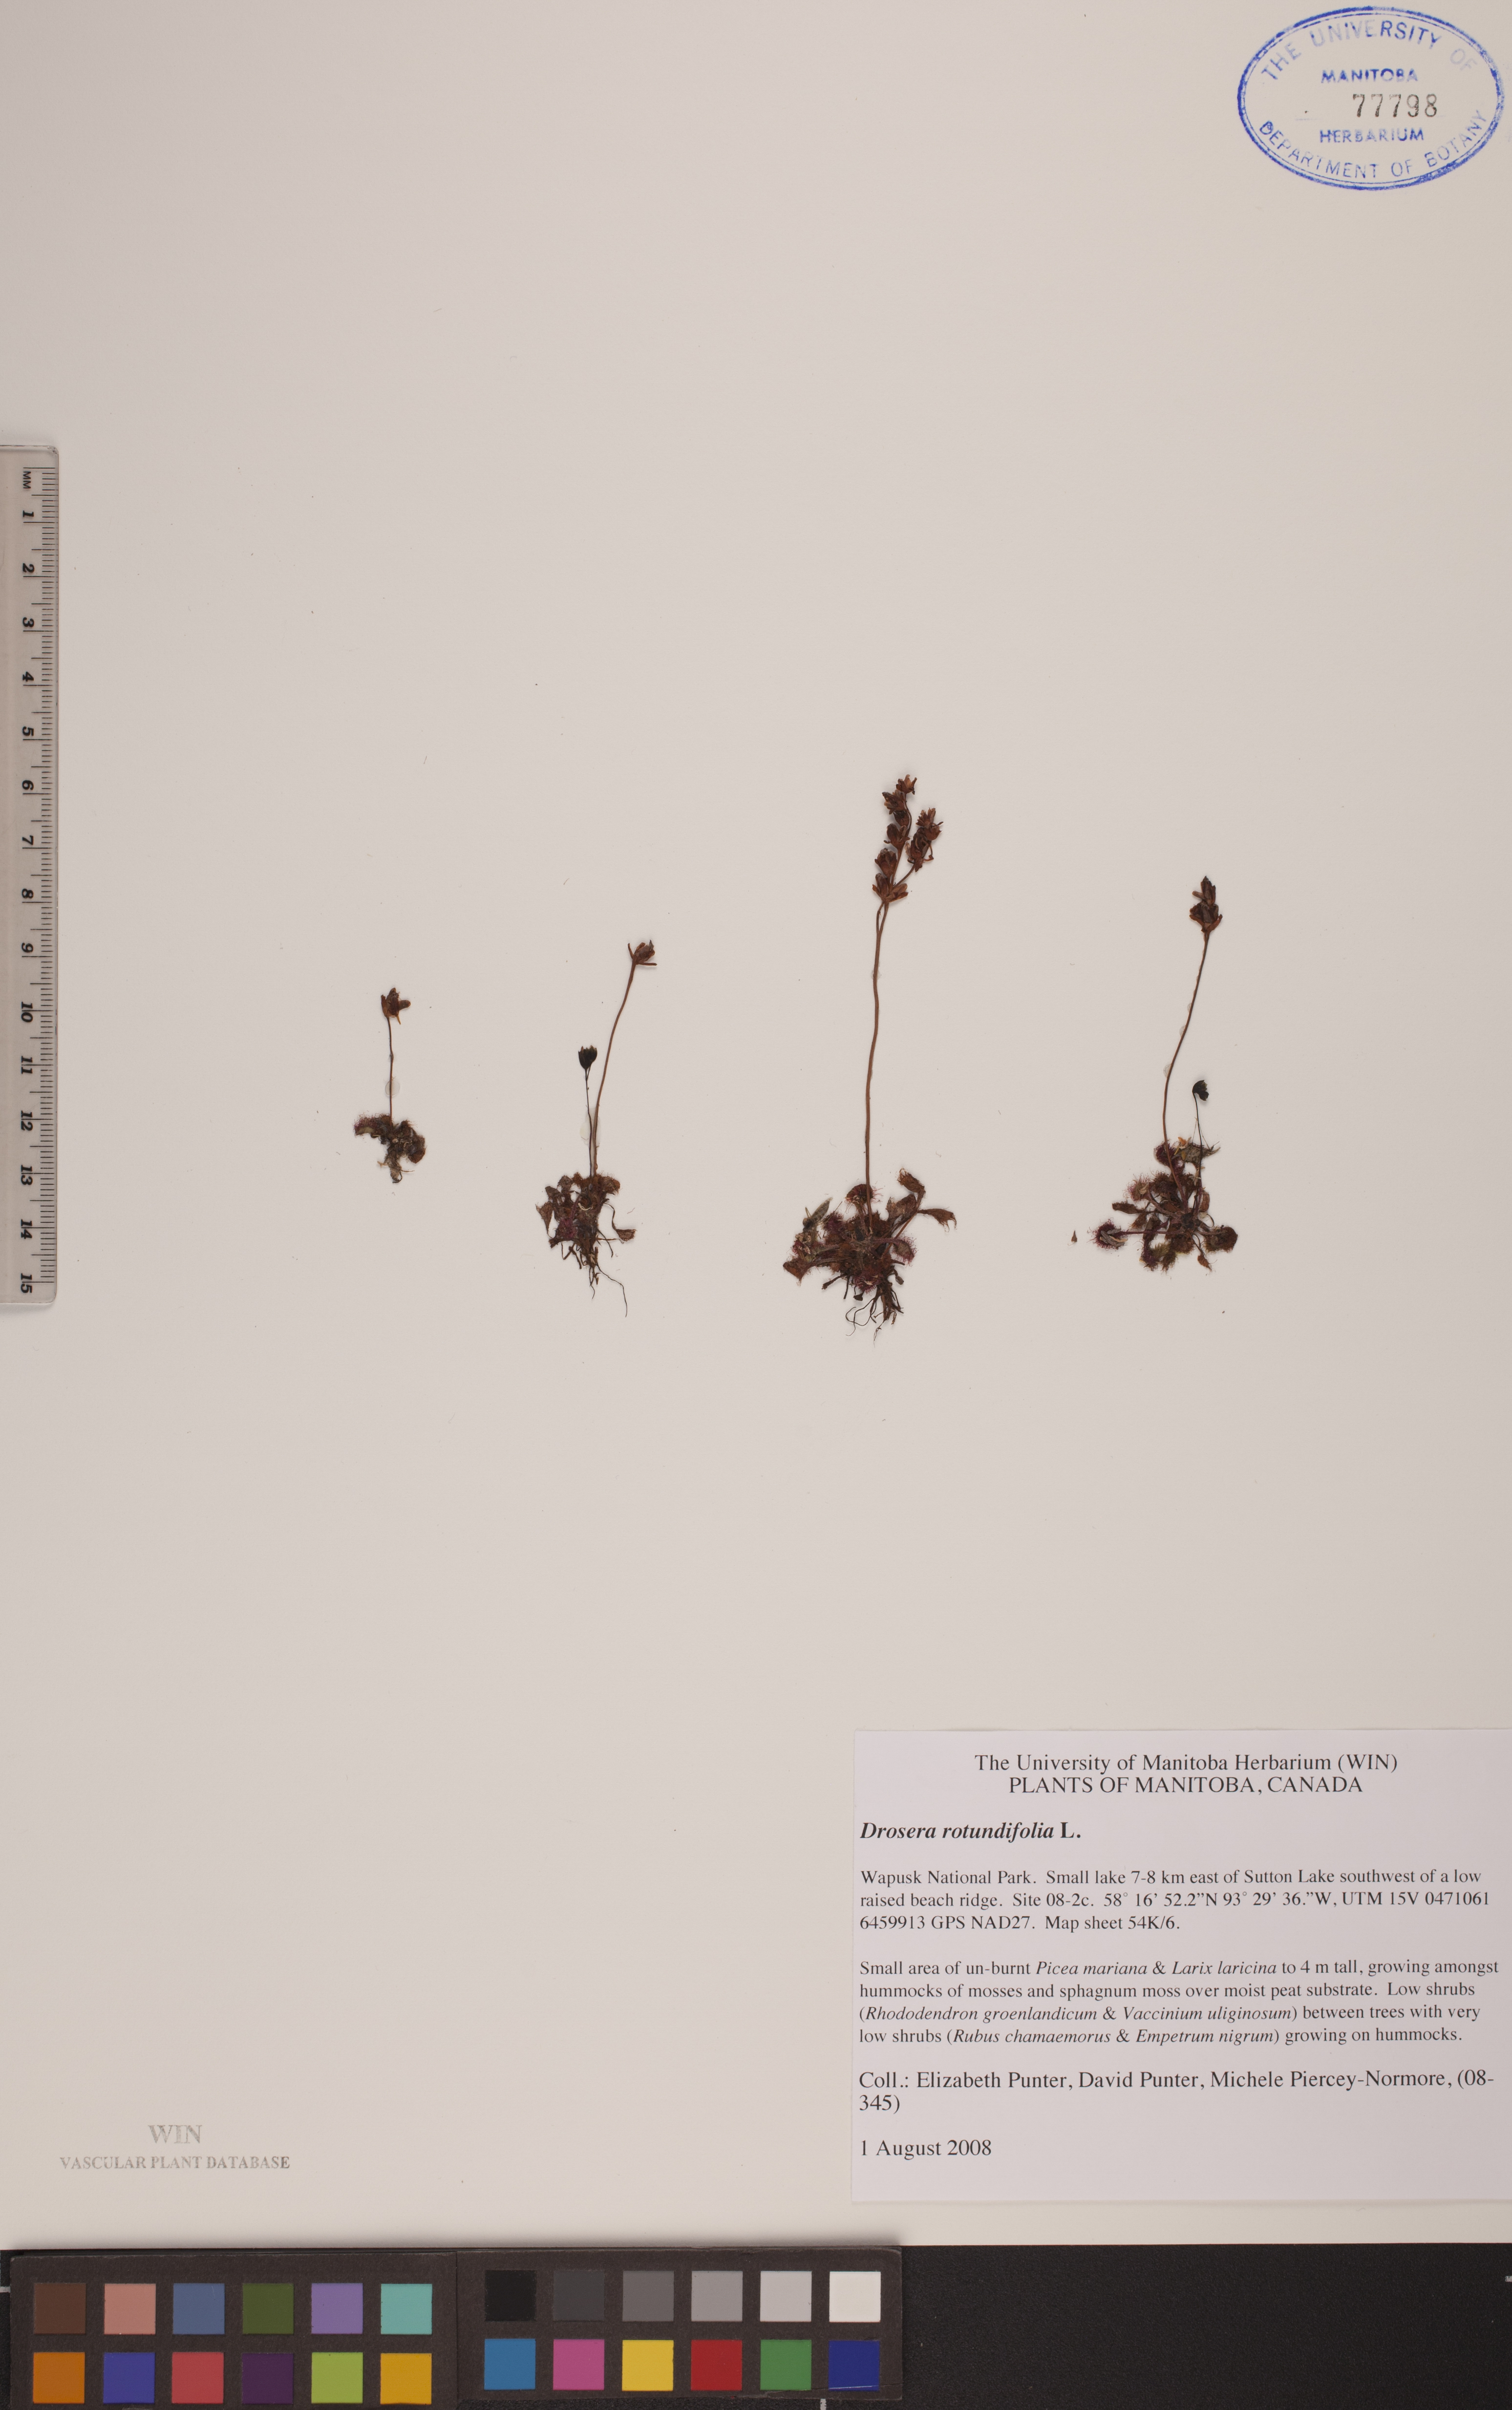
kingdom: Plantae
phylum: Tracheophyta
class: Magnoliopsida
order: Caryophyllales
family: Droseraceae
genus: Drosera
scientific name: Drosera rotundifolia
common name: Round-leaved sundew
